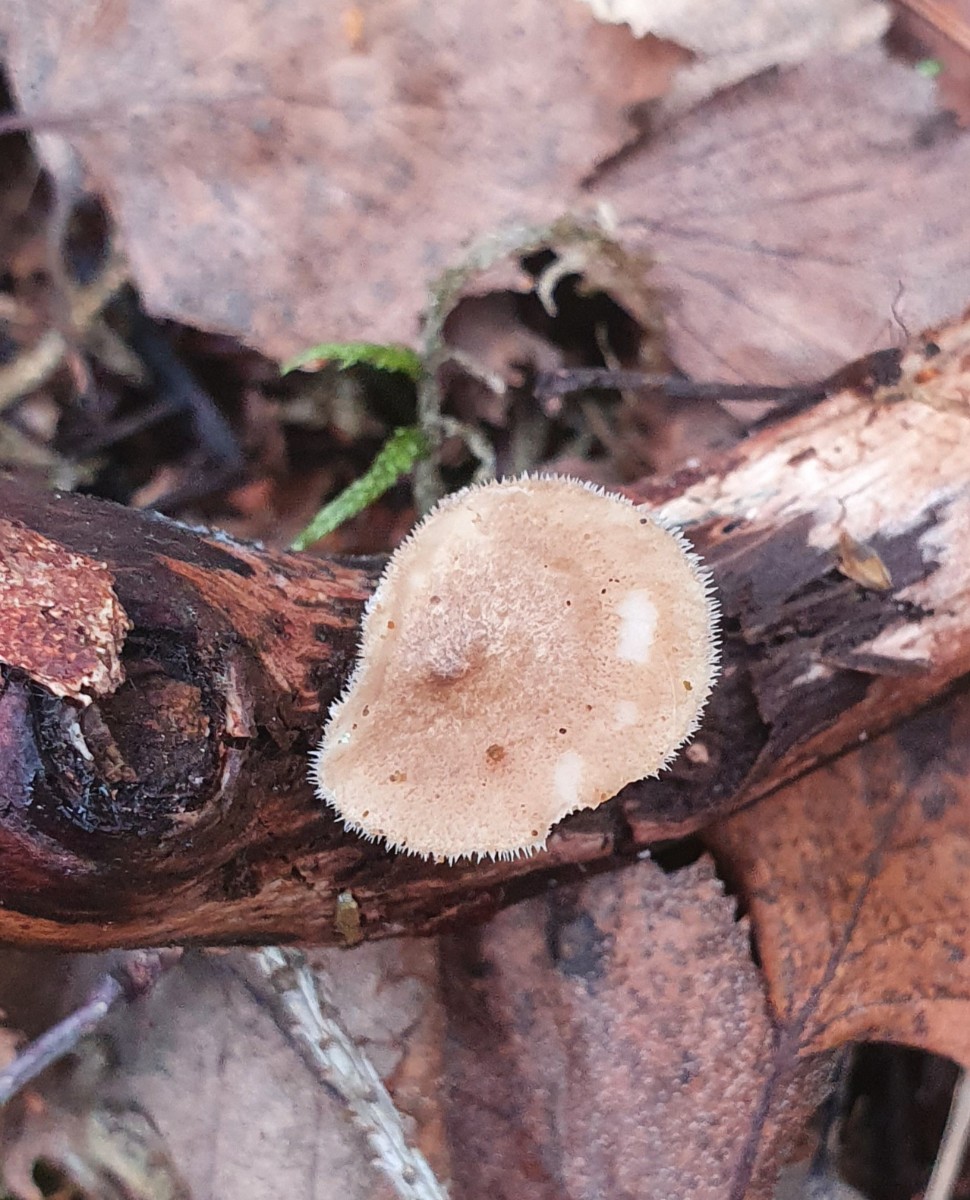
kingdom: Fungi
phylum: Basidiomycota
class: Agaricomycetes
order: Polyporales
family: Polyporaceae
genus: Lentinus
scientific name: Lentinus brumalis
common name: vinter-stilkporesvamp
